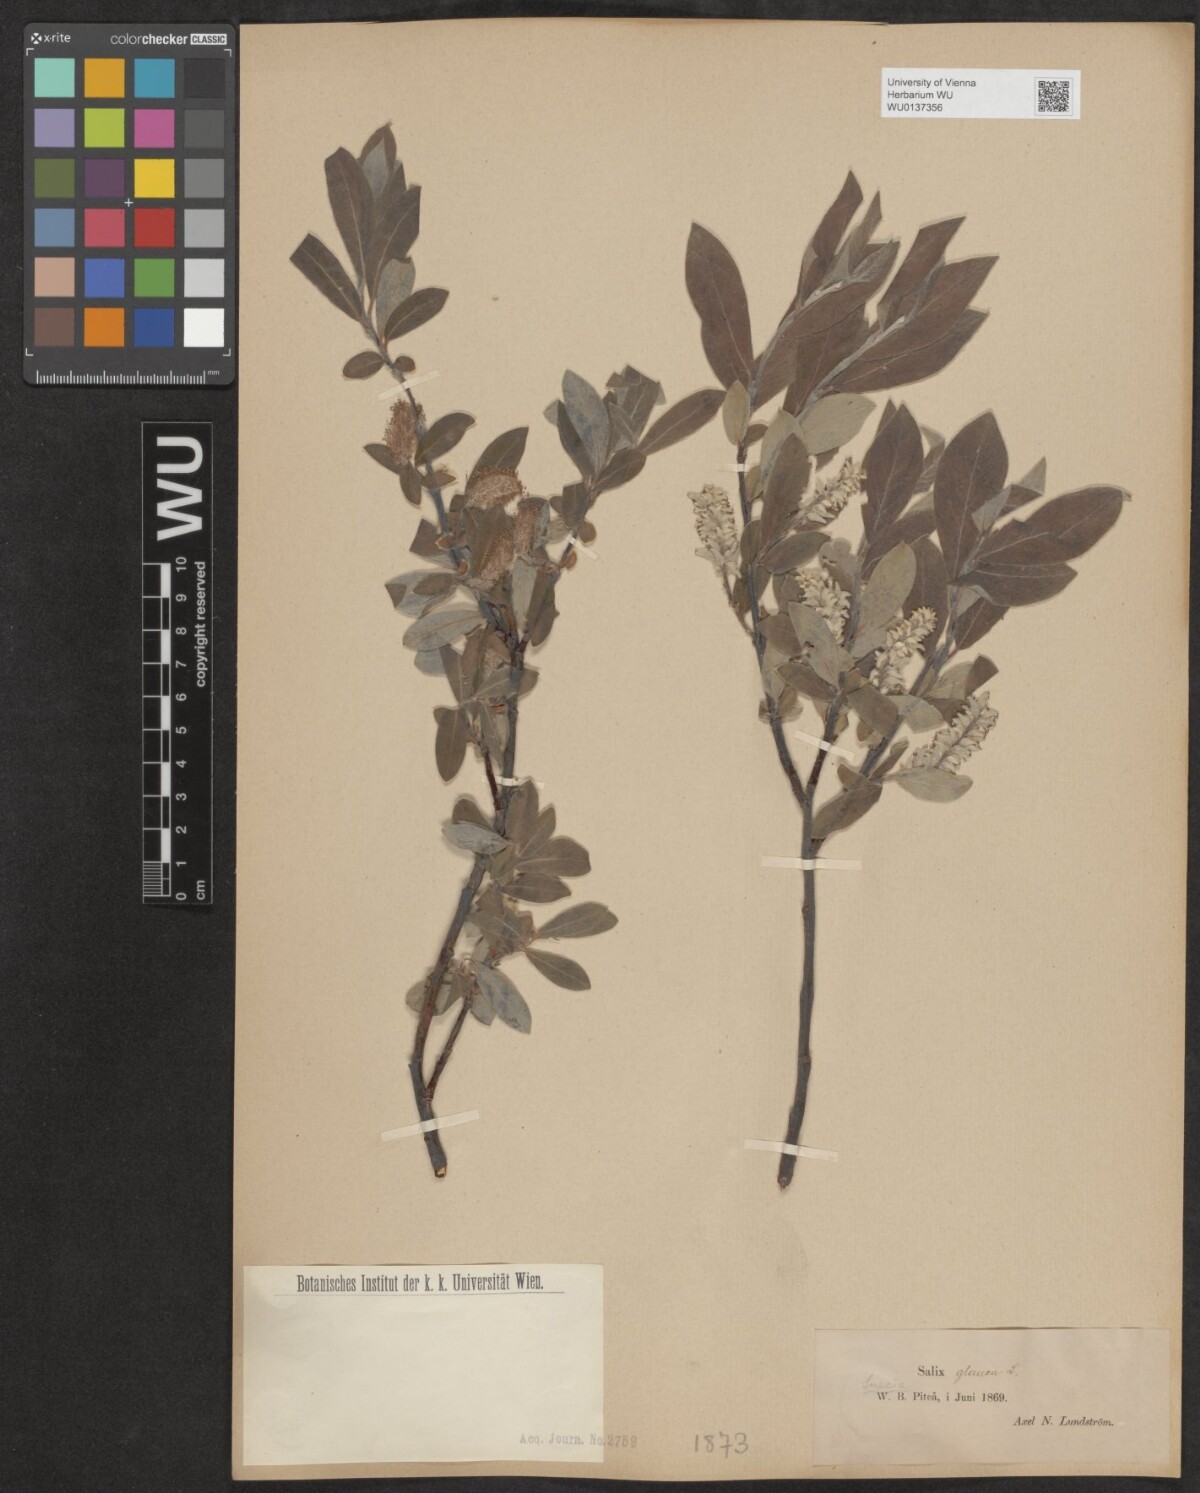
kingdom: Plantae
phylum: Tracheophyta
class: Magnoliopsida
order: Malpighiales
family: Salicaceae
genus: Salix
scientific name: Salix glauca
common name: Glaucous willow
